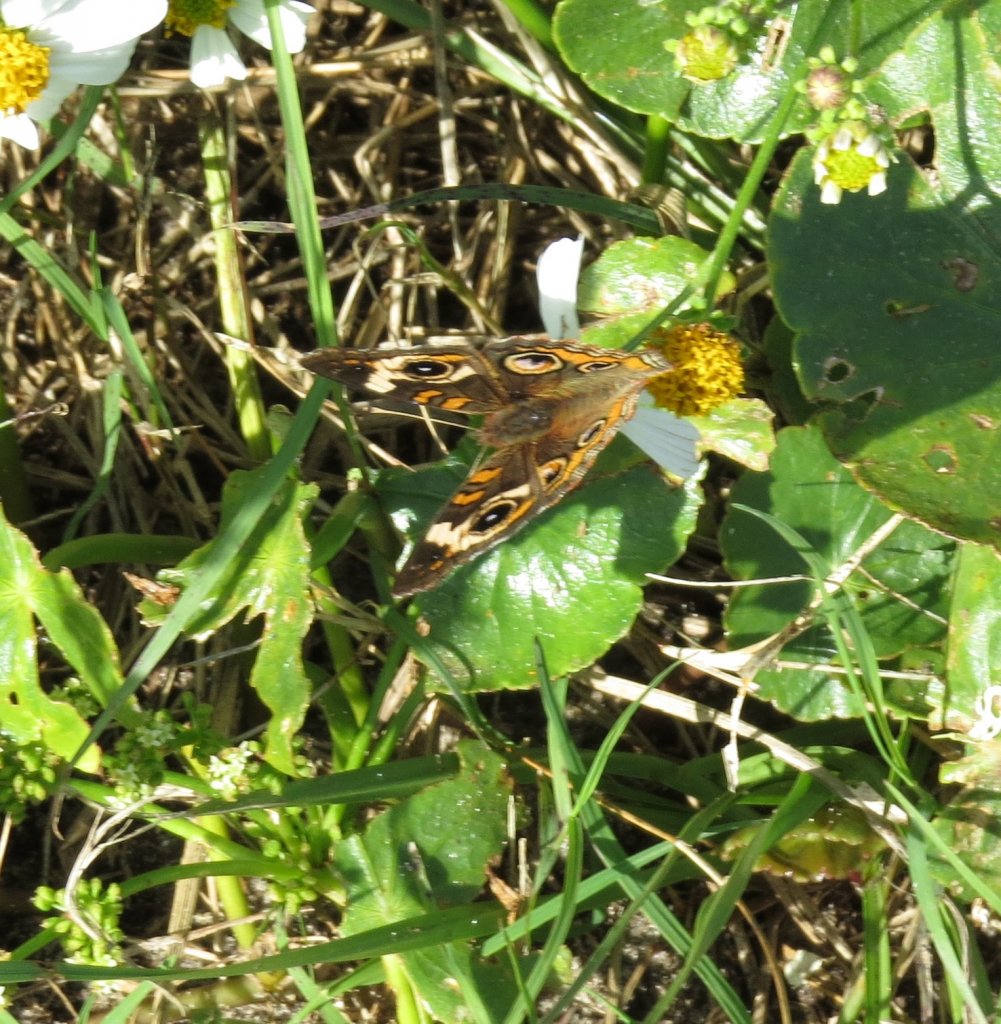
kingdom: Animalia
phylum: Arthropoda
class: Insecta
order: Lepidoptera
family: Nymphalidae
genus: Junonia
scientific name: Junonia coenia
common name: Common Buckeye
